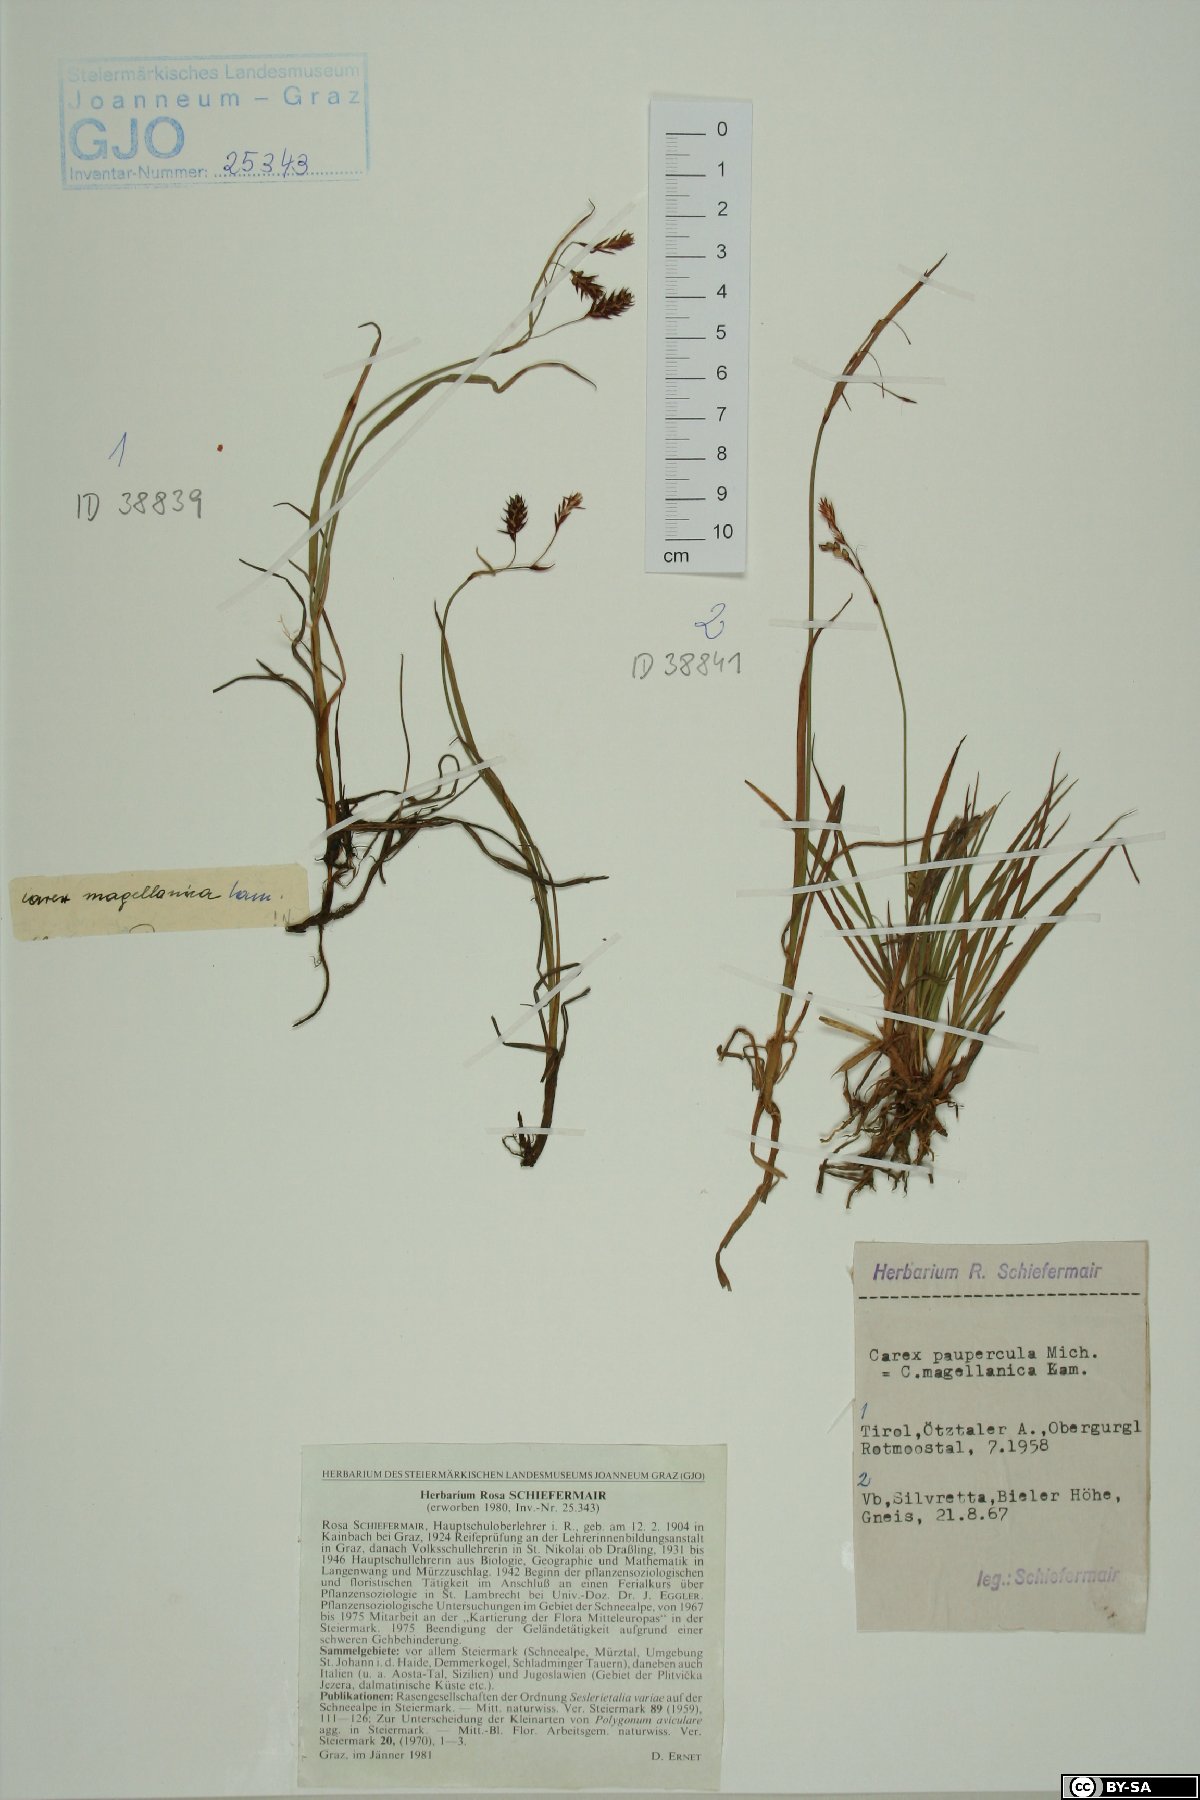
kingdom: Plantae
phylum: Tracheophyta
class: Liliopsida
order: Poales
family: Cyperaceae
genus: Carex
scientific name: Carex magellanica
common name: Bog sedge
